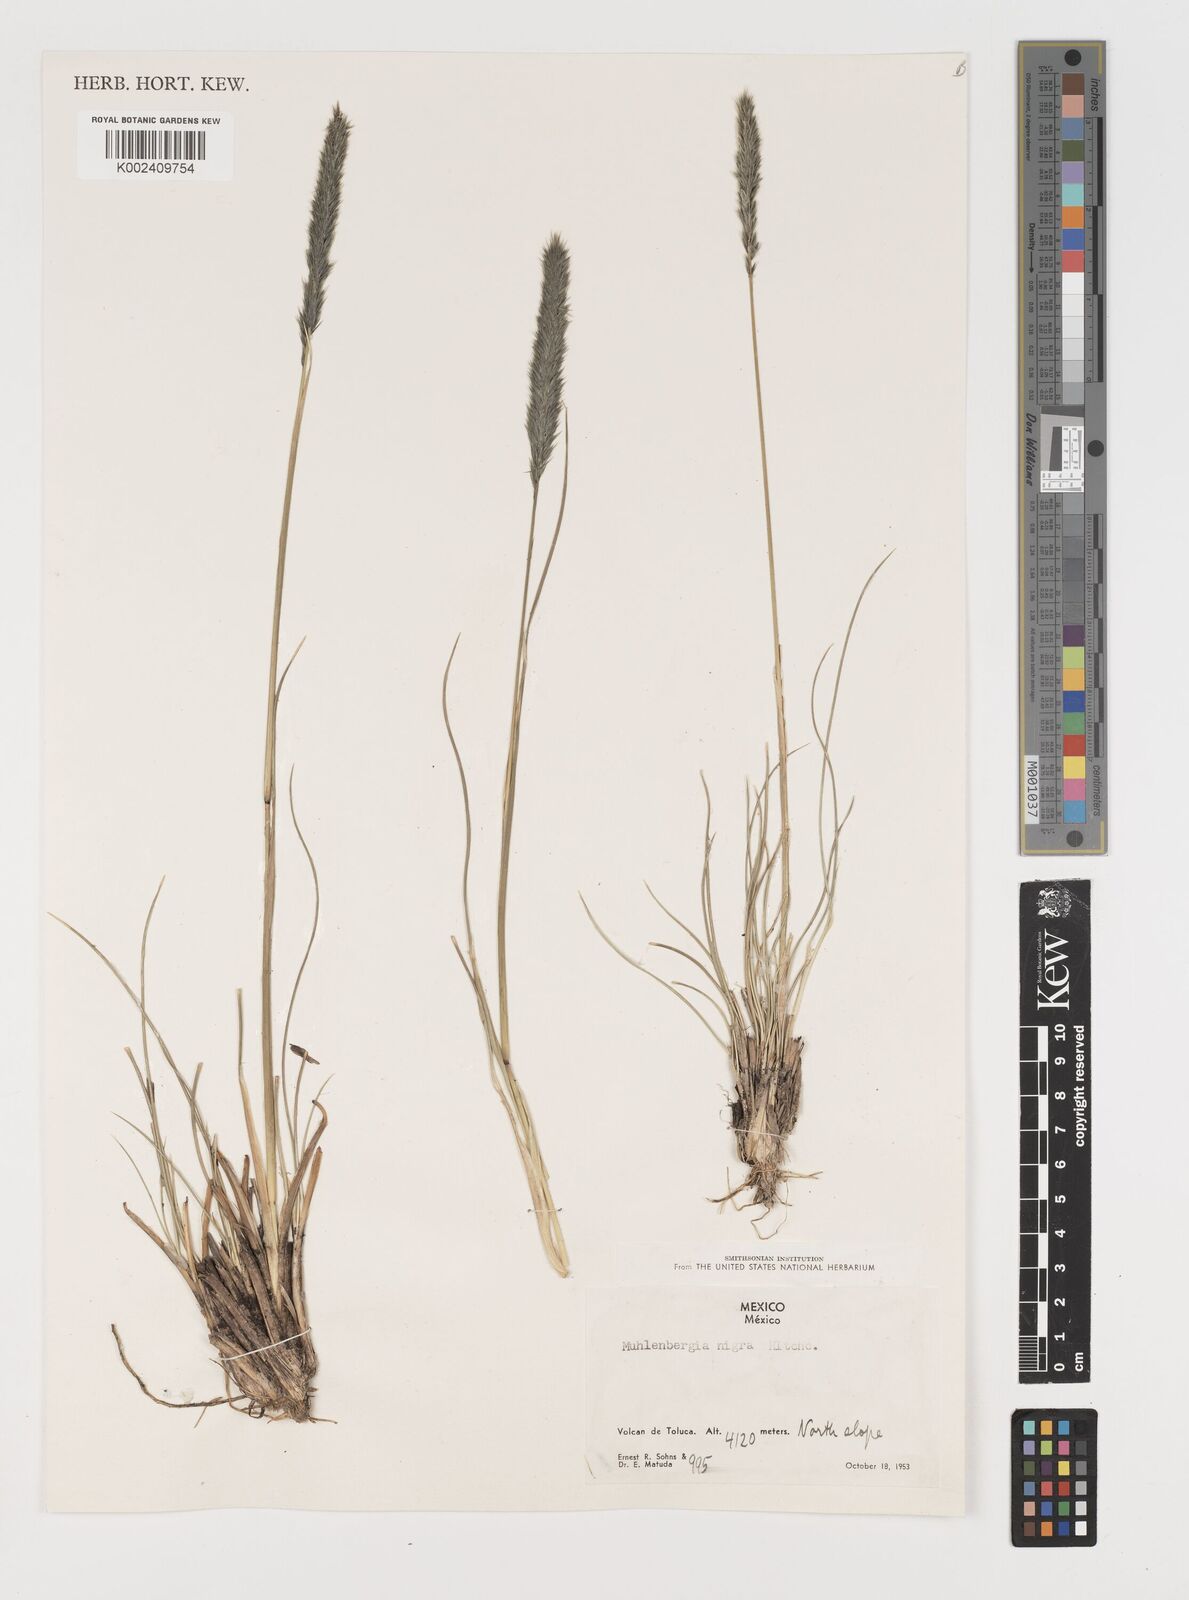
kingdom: Plantae
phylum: Tracheophyta
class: Liliopsida
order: Poales
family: Poaceae
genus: Muhlenbergia
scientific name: Muhlenbergia nigra
